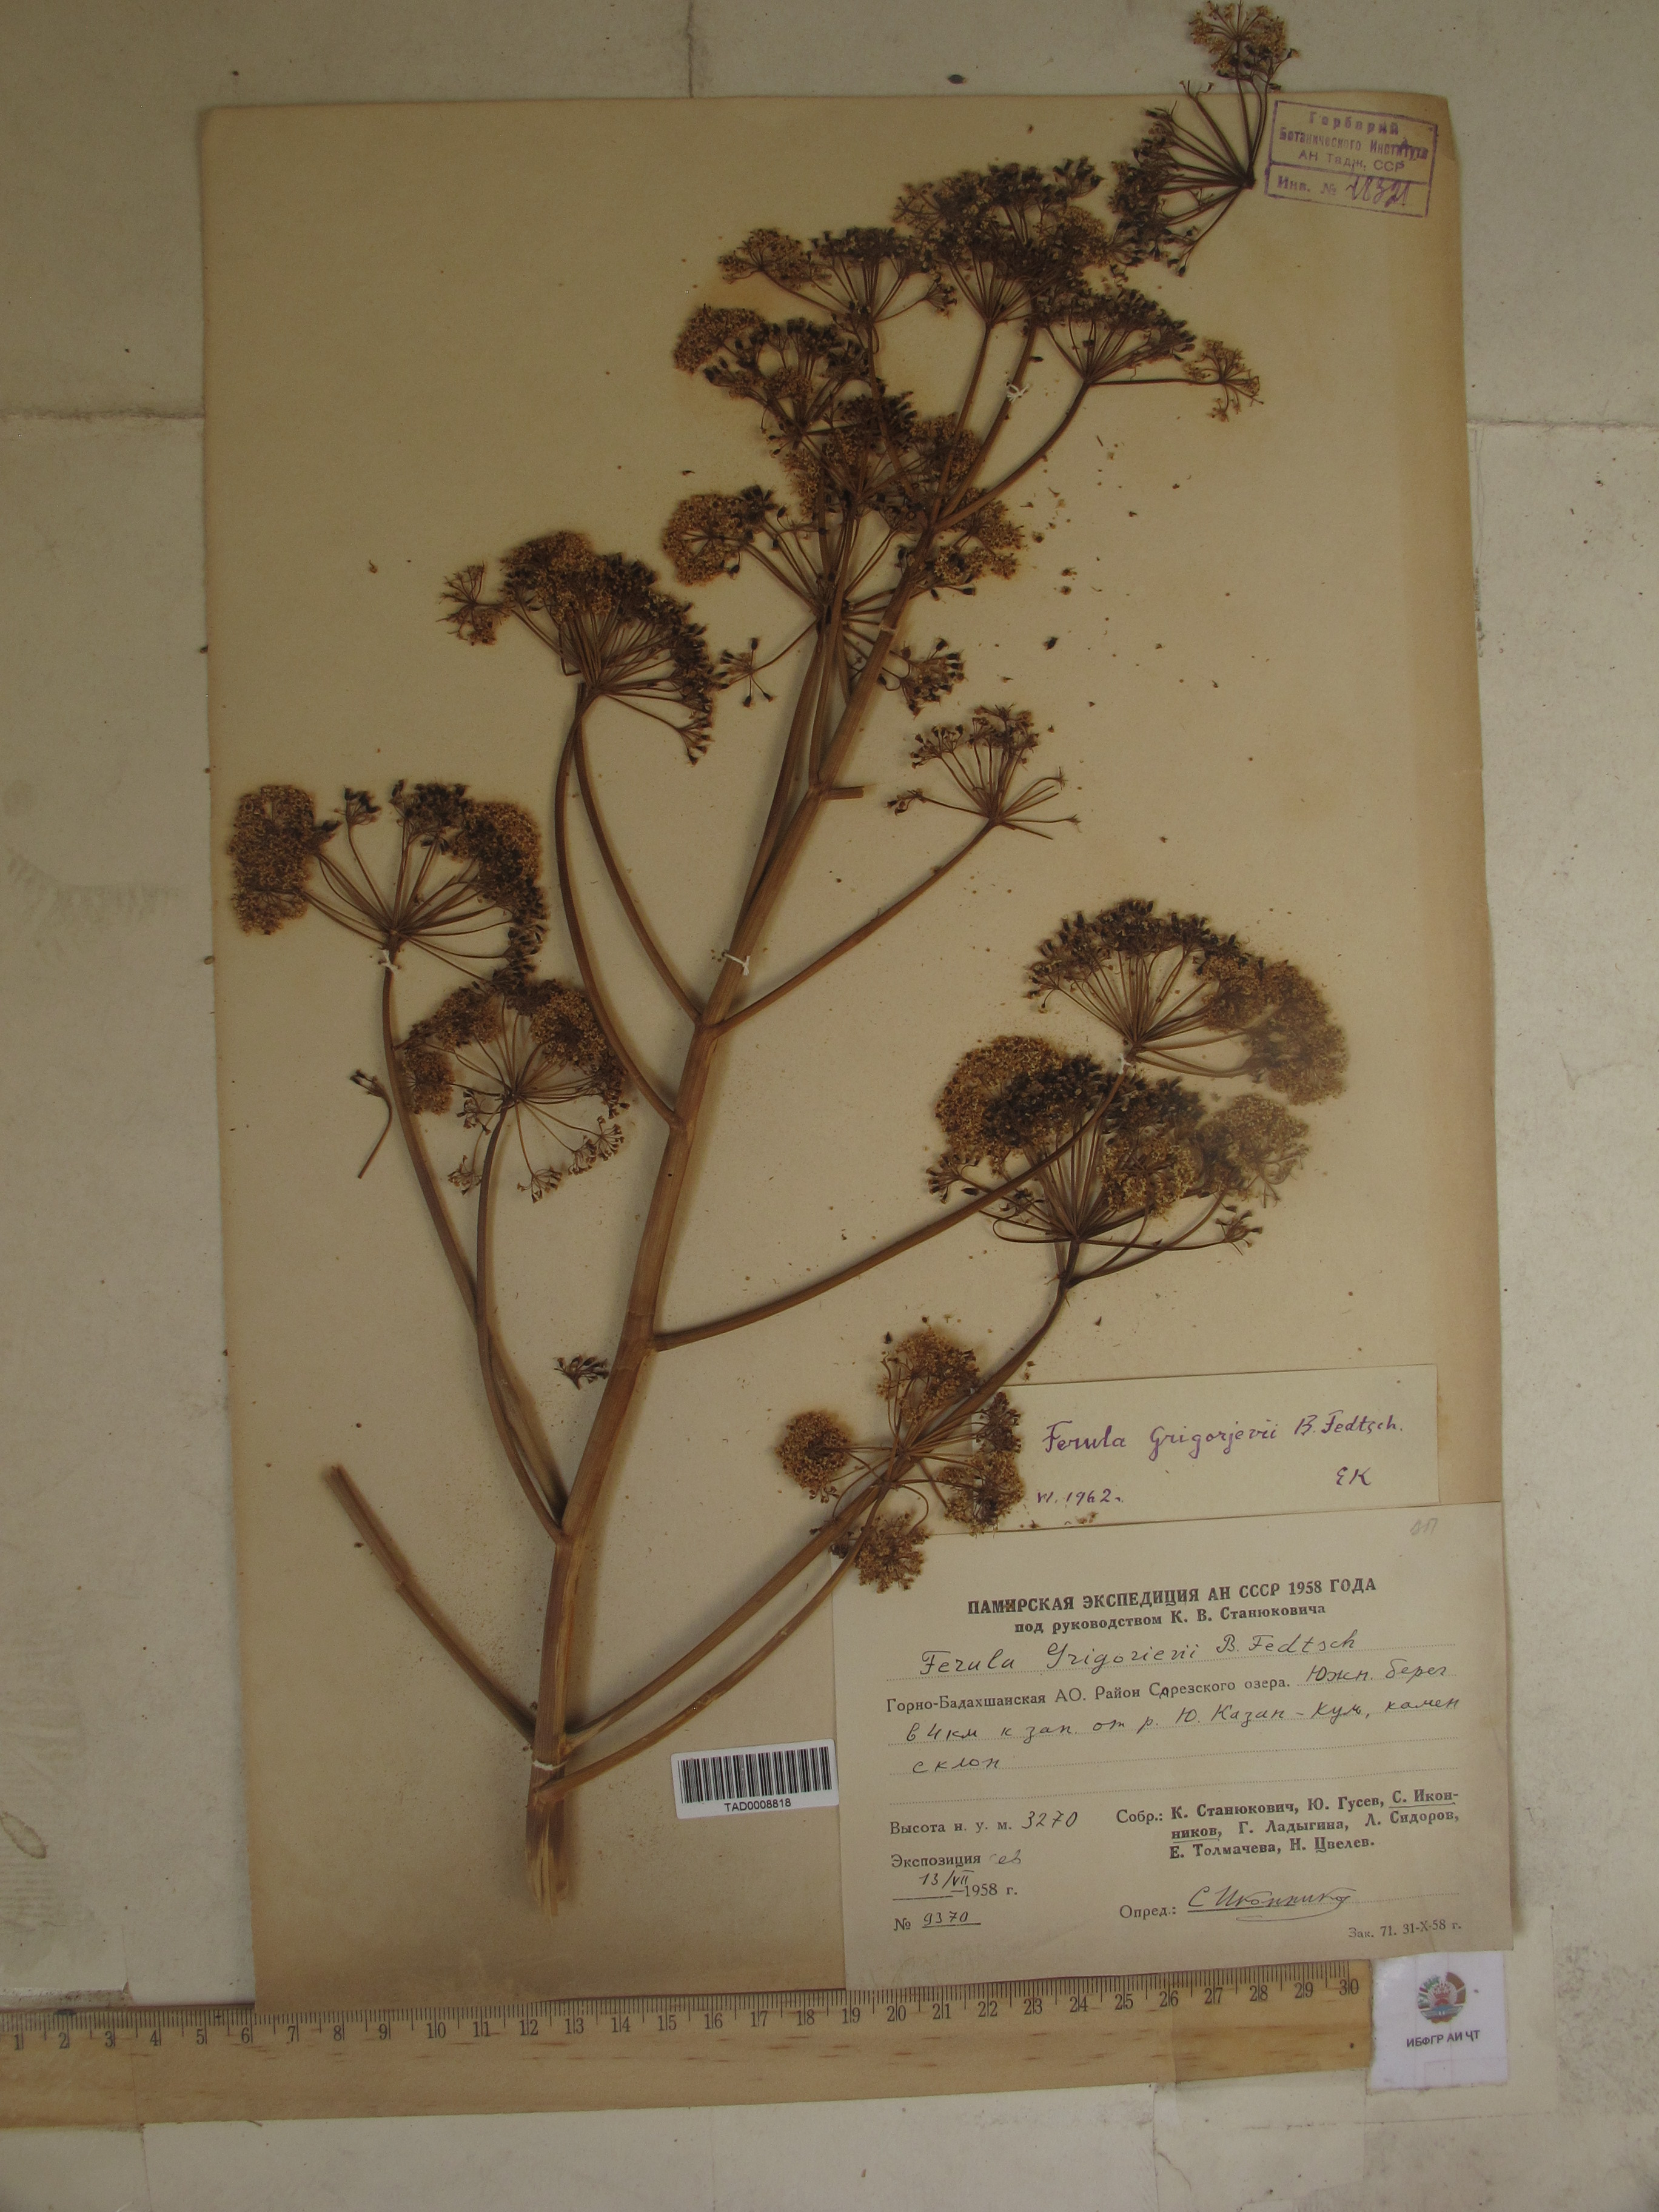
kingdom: Plantae
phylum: Tracheophyta
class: Magnoliopsida
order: Apiales
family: Apiaceae
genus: Ferula
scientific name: Ferula grigoriewii
